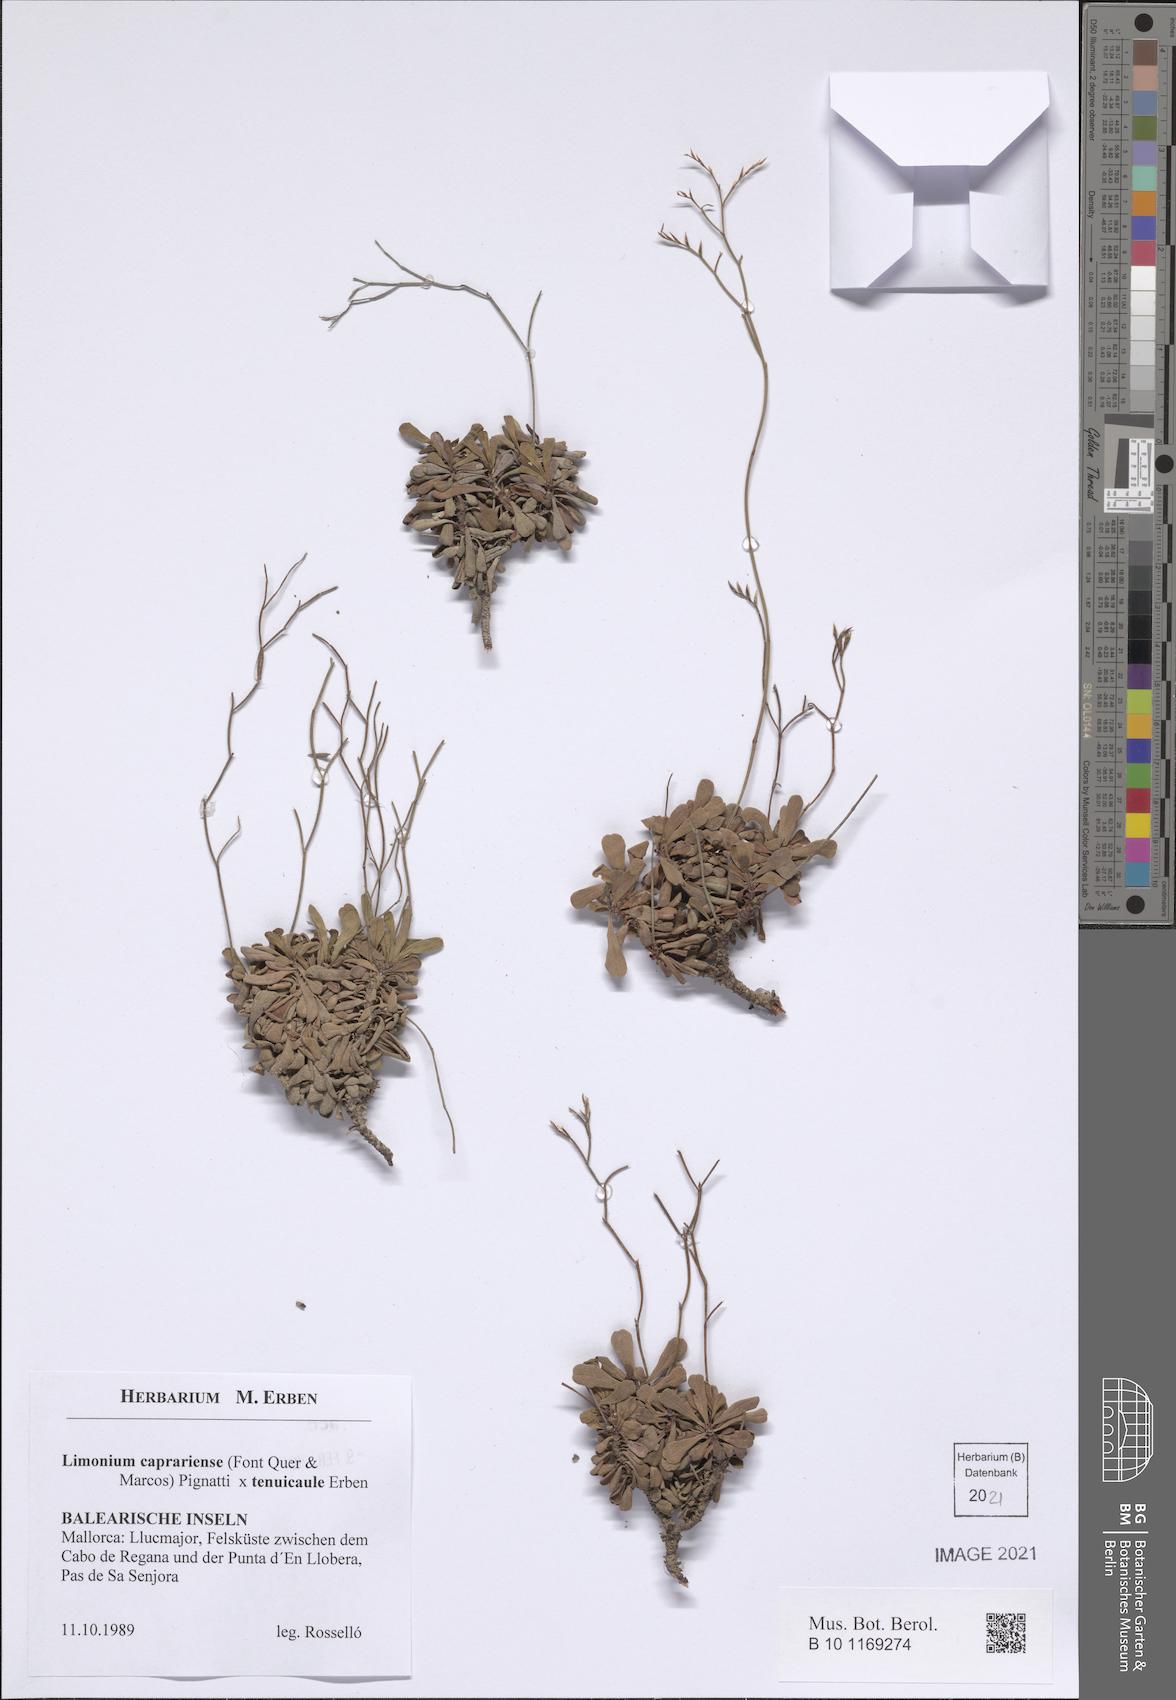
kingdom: Plantae
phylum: Tracheophyta
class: Magnoliopsida
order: Caryophyllales
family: Plumbaginaceae
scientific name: Plumbaginaceae
